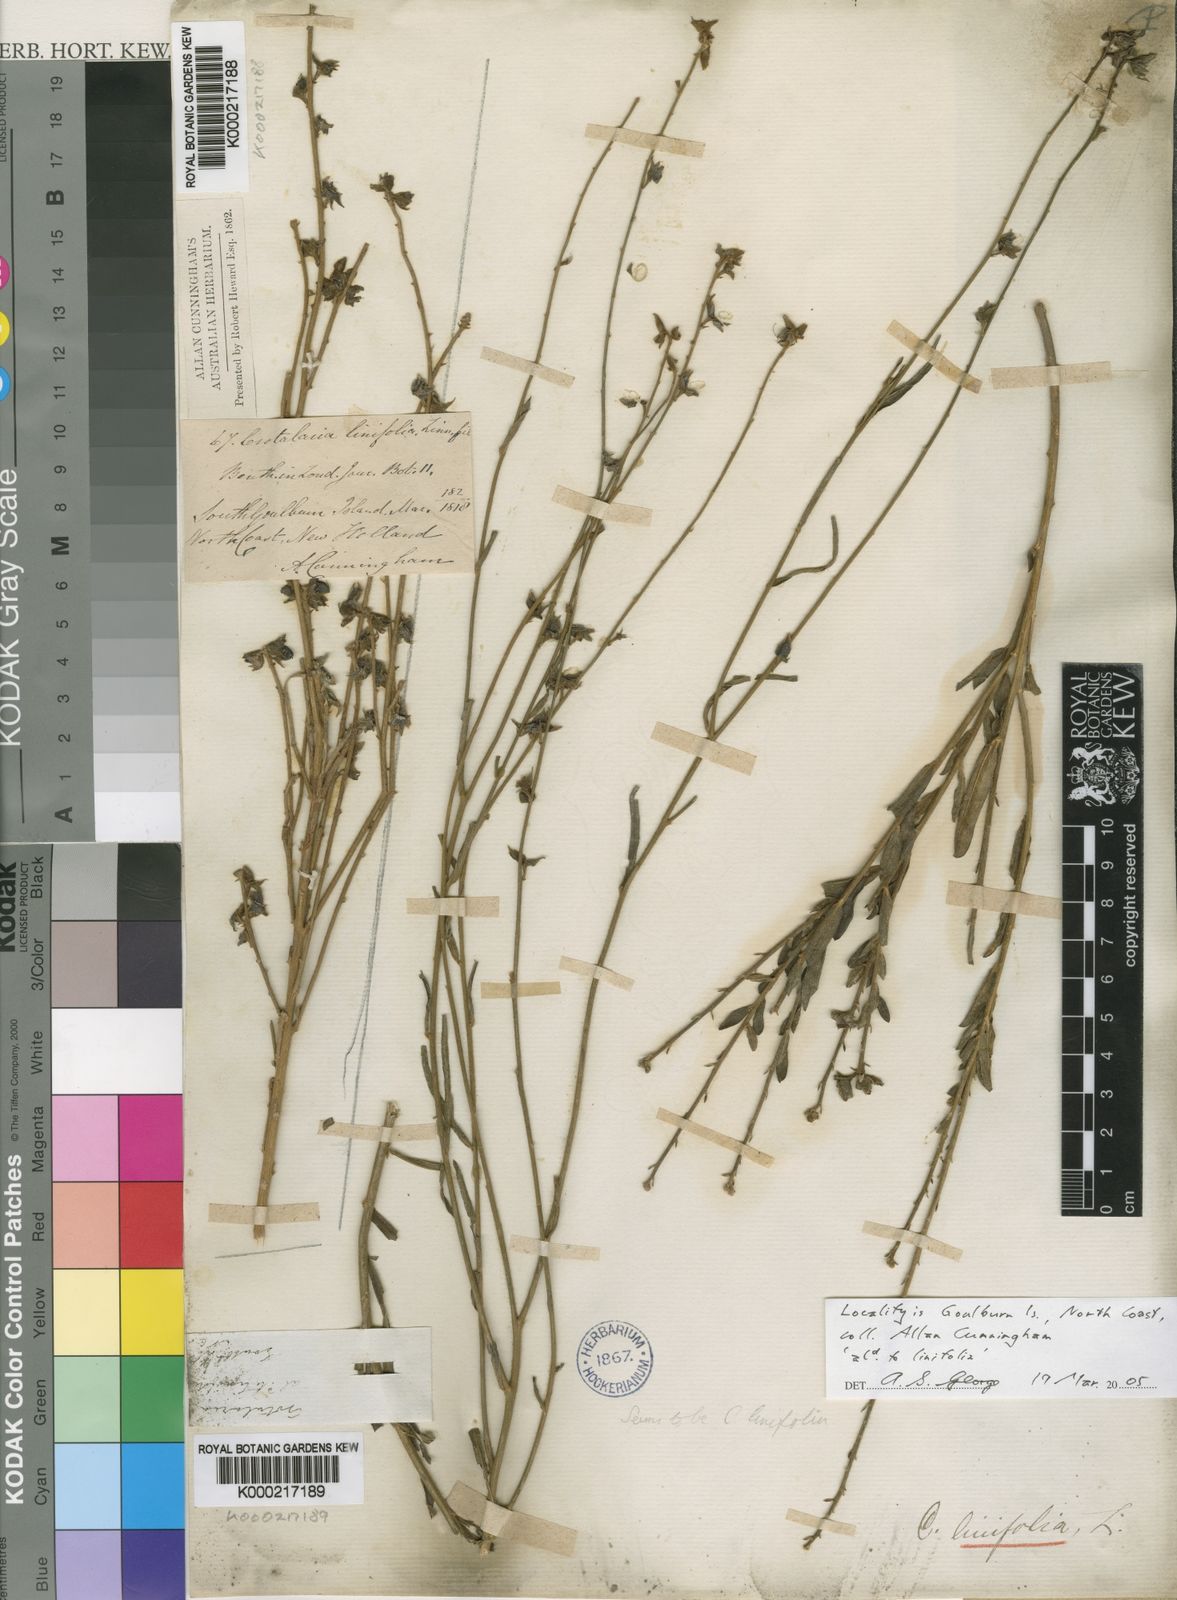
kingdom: Plantae
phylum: Tracheophyta
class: Magnoliopsida
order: Fabales
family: Fabaceae
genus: Crotalaria
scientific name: Crotalaria linifolia
